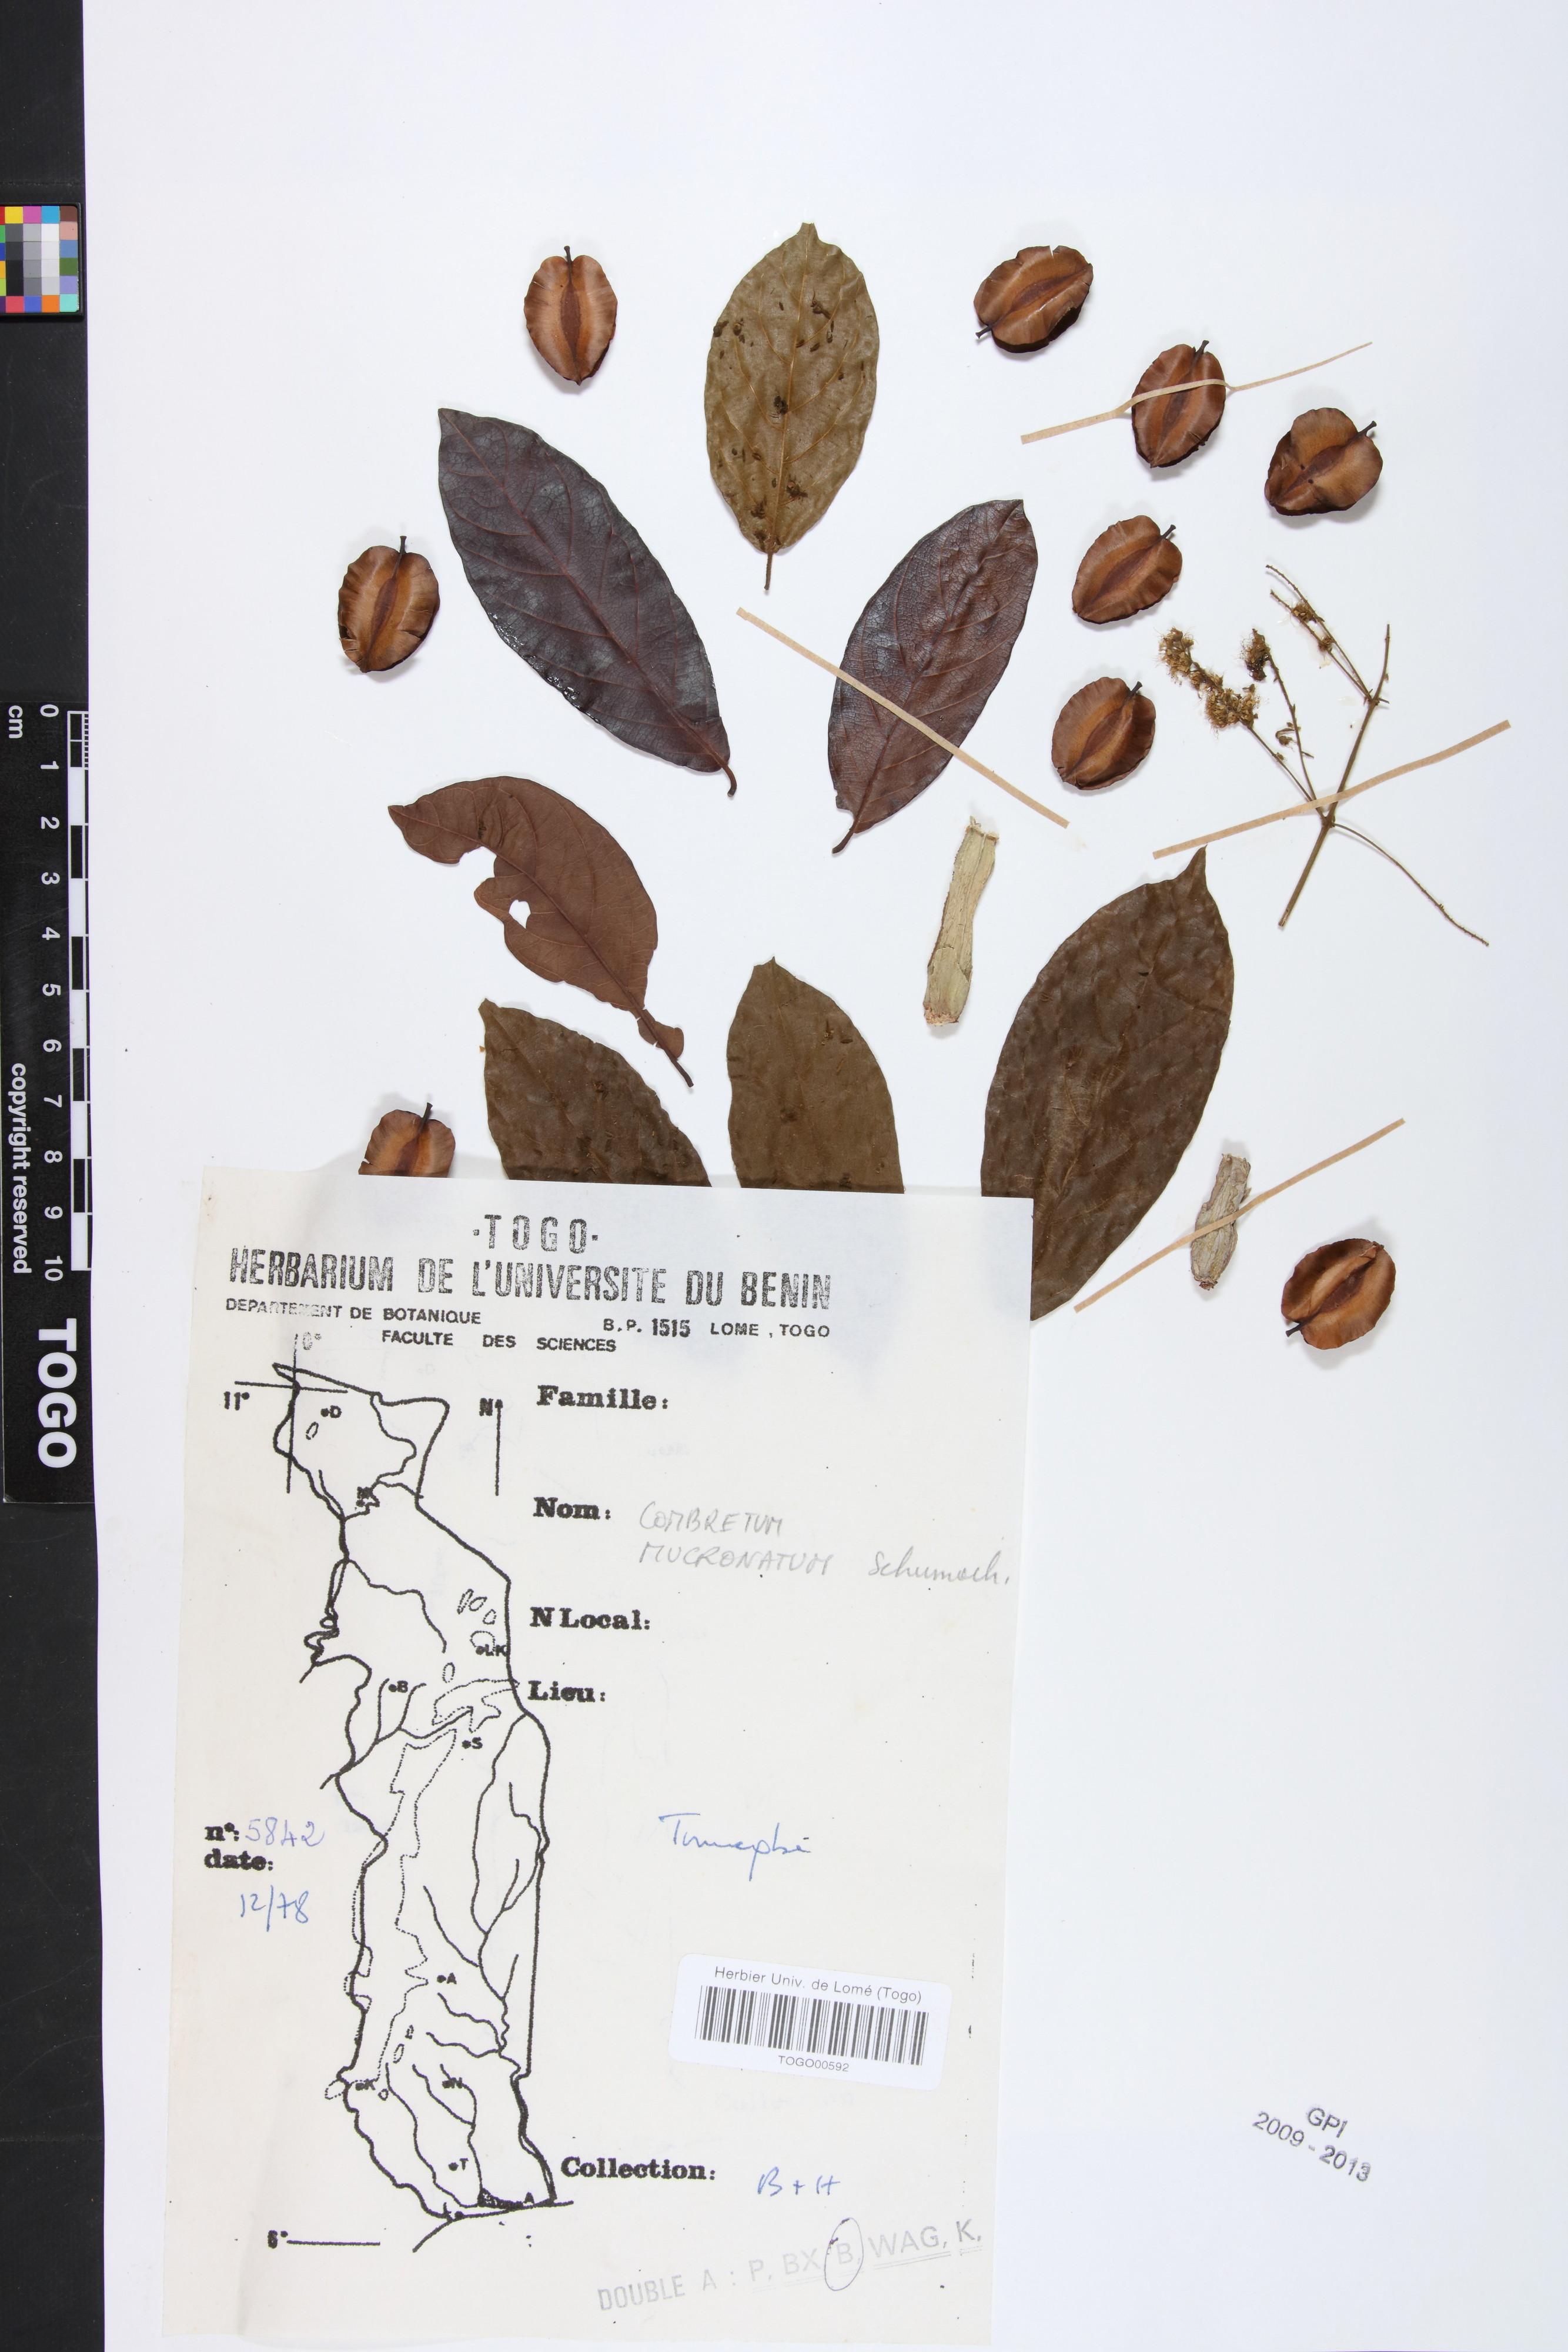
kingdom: Plantae
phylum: Tracheophyta
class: Magnoliopsida
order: Myrtales
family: Combretaceae
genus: Combretum
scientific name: Combretum mucronatum
